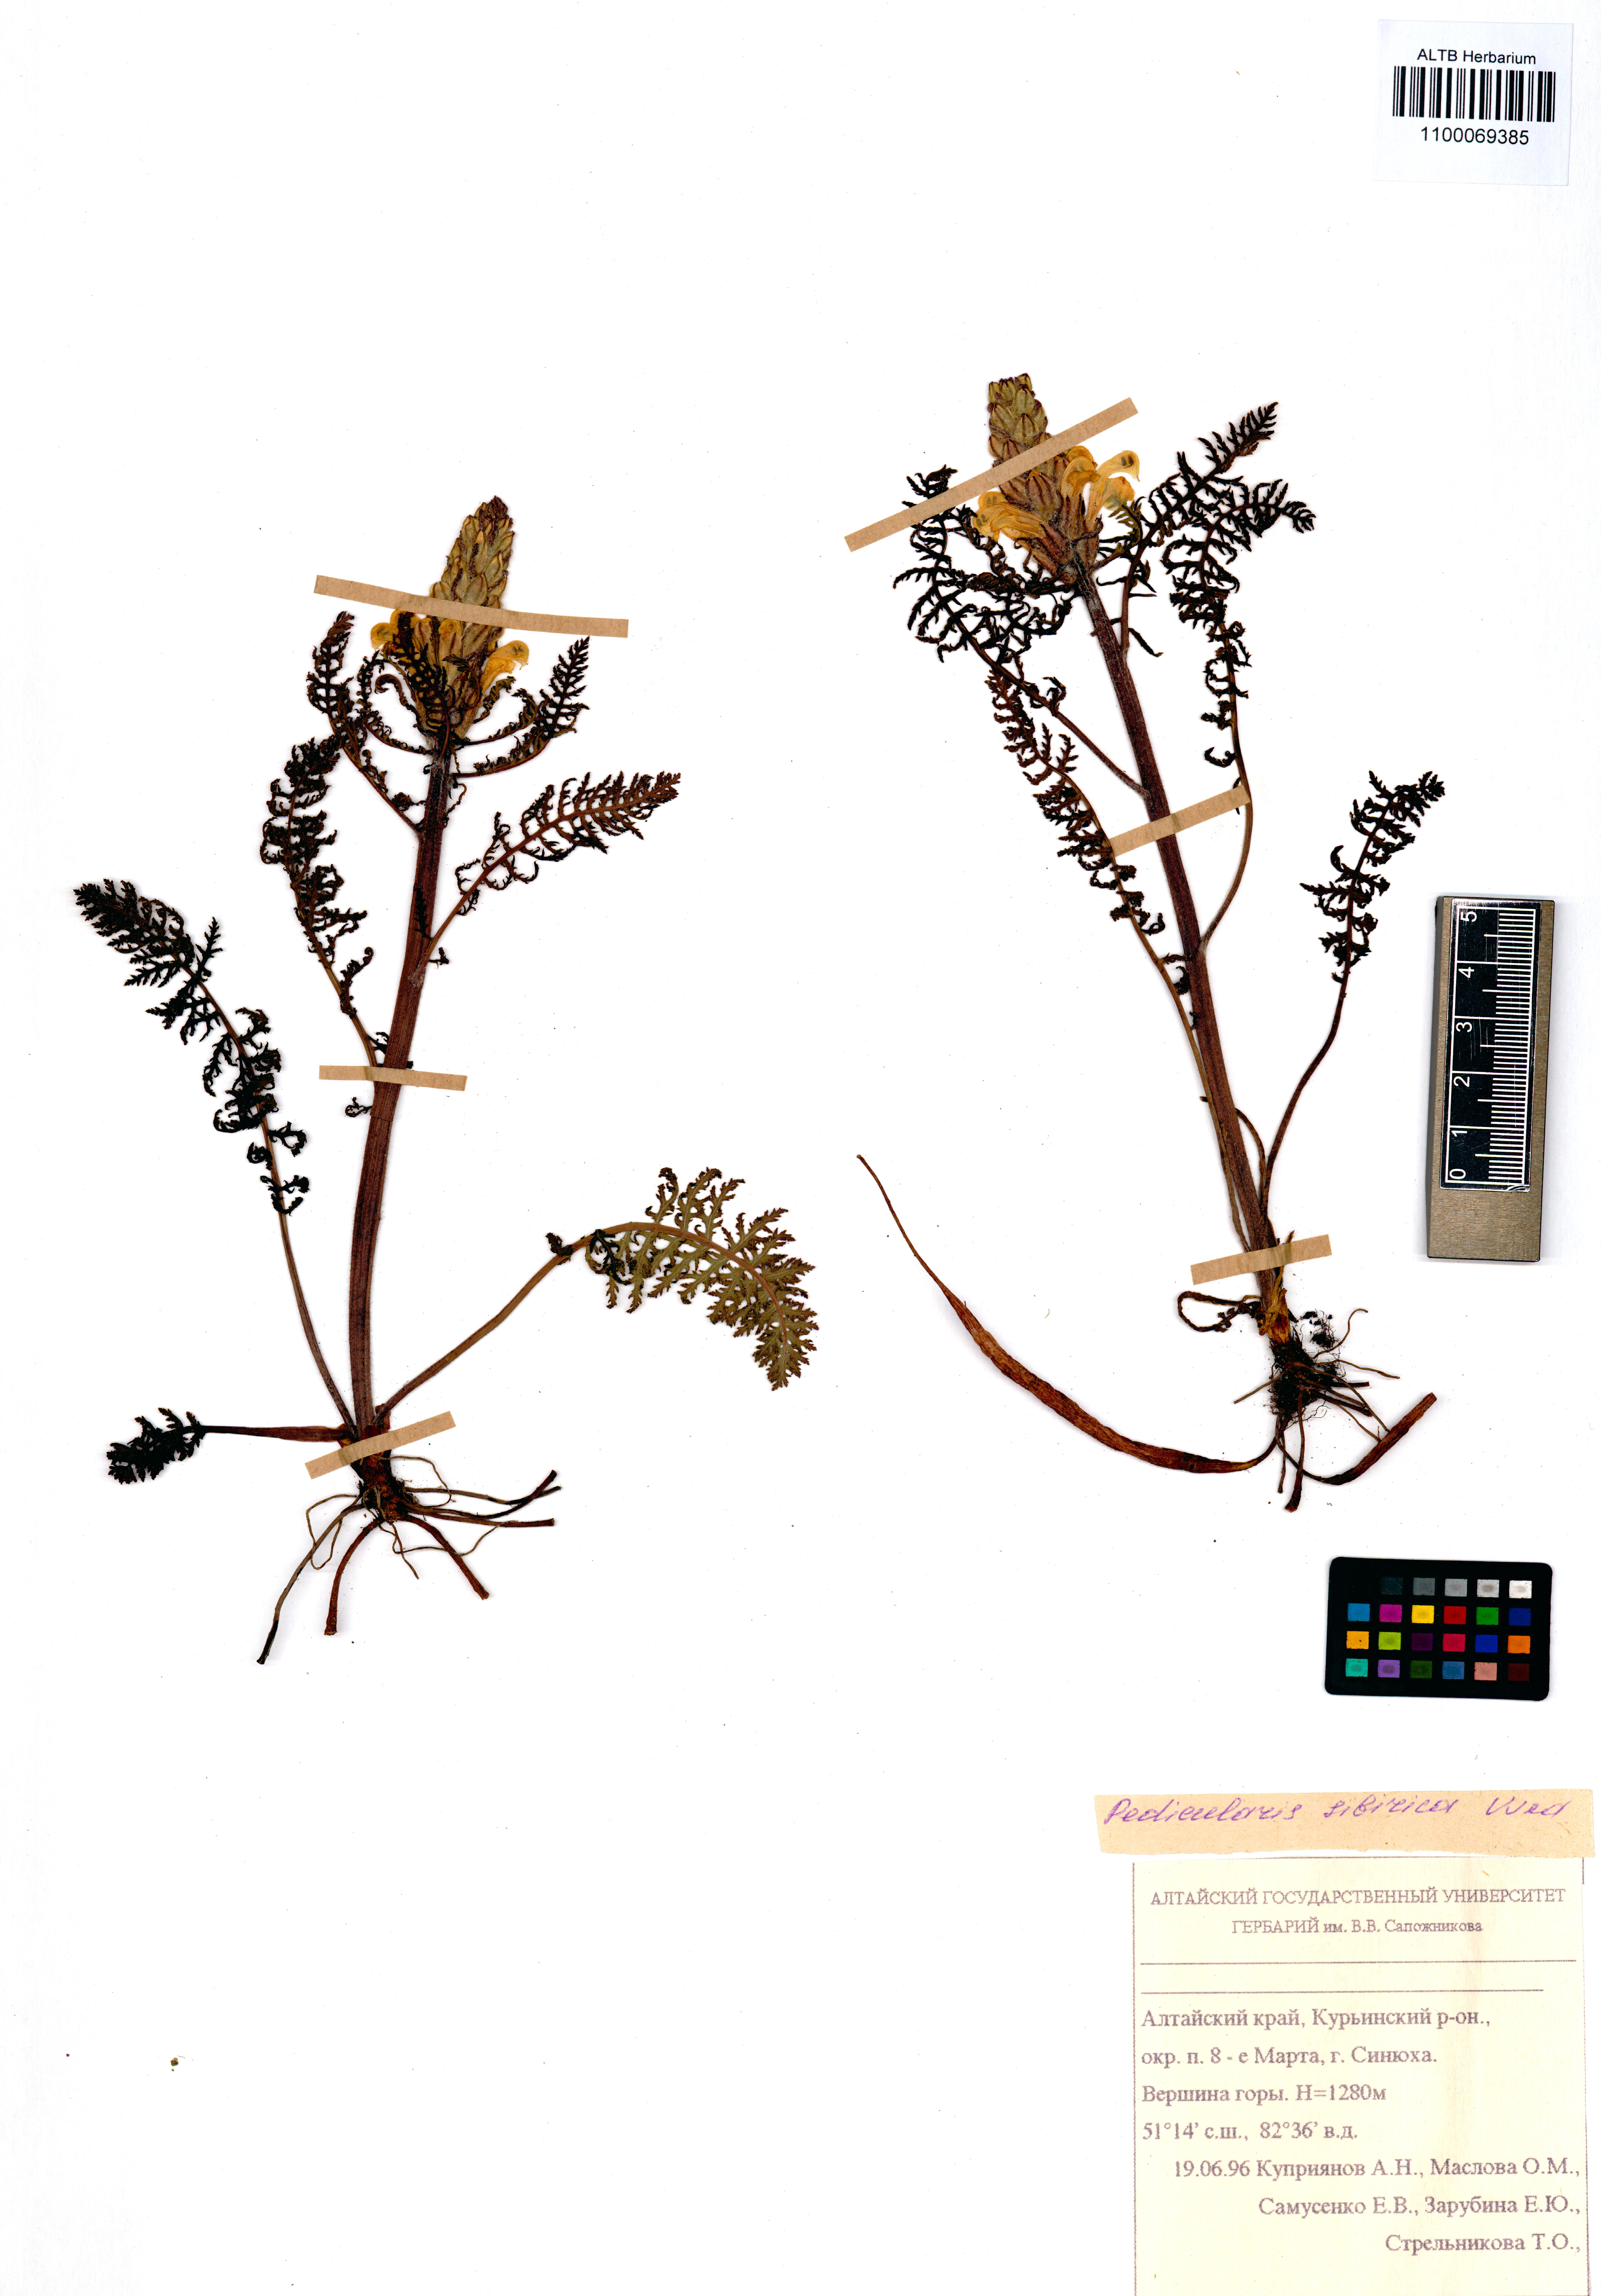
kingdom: Plantae
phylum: Tracheophyta
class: Magnoliopsida
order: Lamiales
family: Orobanchaceae
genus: Pedicularis
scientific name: Pedicularis sibirica
